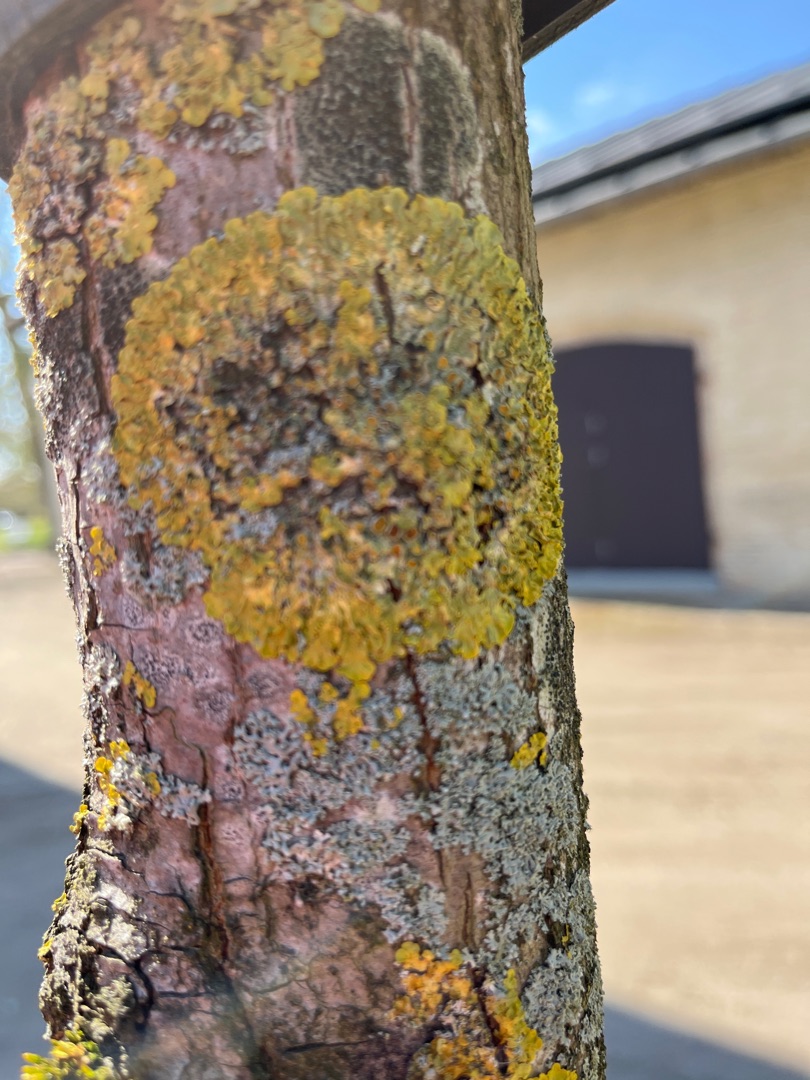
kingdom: Fungi
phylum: Ascomycota
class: Lecanoromycetes
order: Teloschistales
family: Teloschistaceae
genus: Xanthoria
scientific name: Xanthoria parietina
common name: Almindelig væggelav
